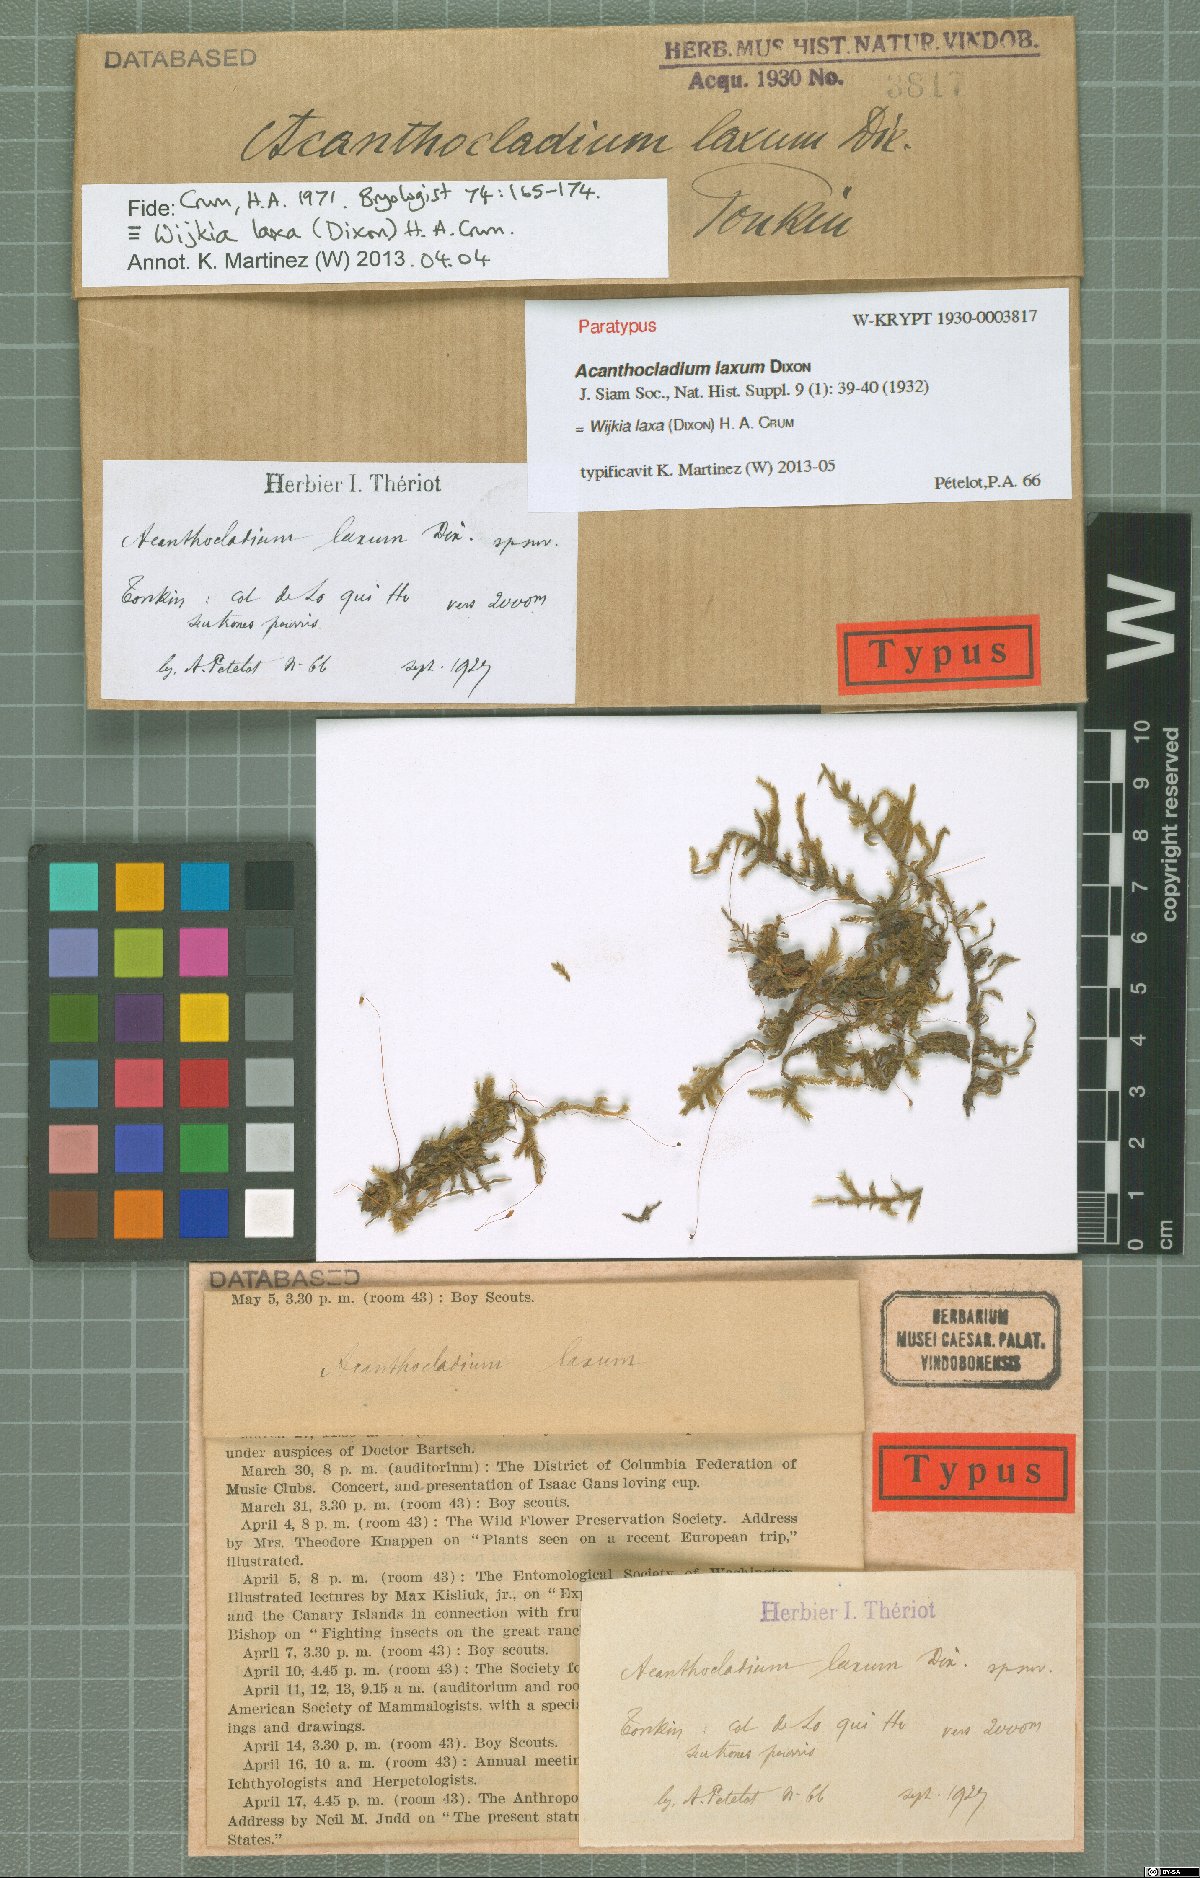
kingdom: Plantae
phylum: Bryophyta
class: Bryopsida
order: Hypnales
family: Pylaisiadelphaceae
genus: Wijkia
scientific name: Wijkia laxa
